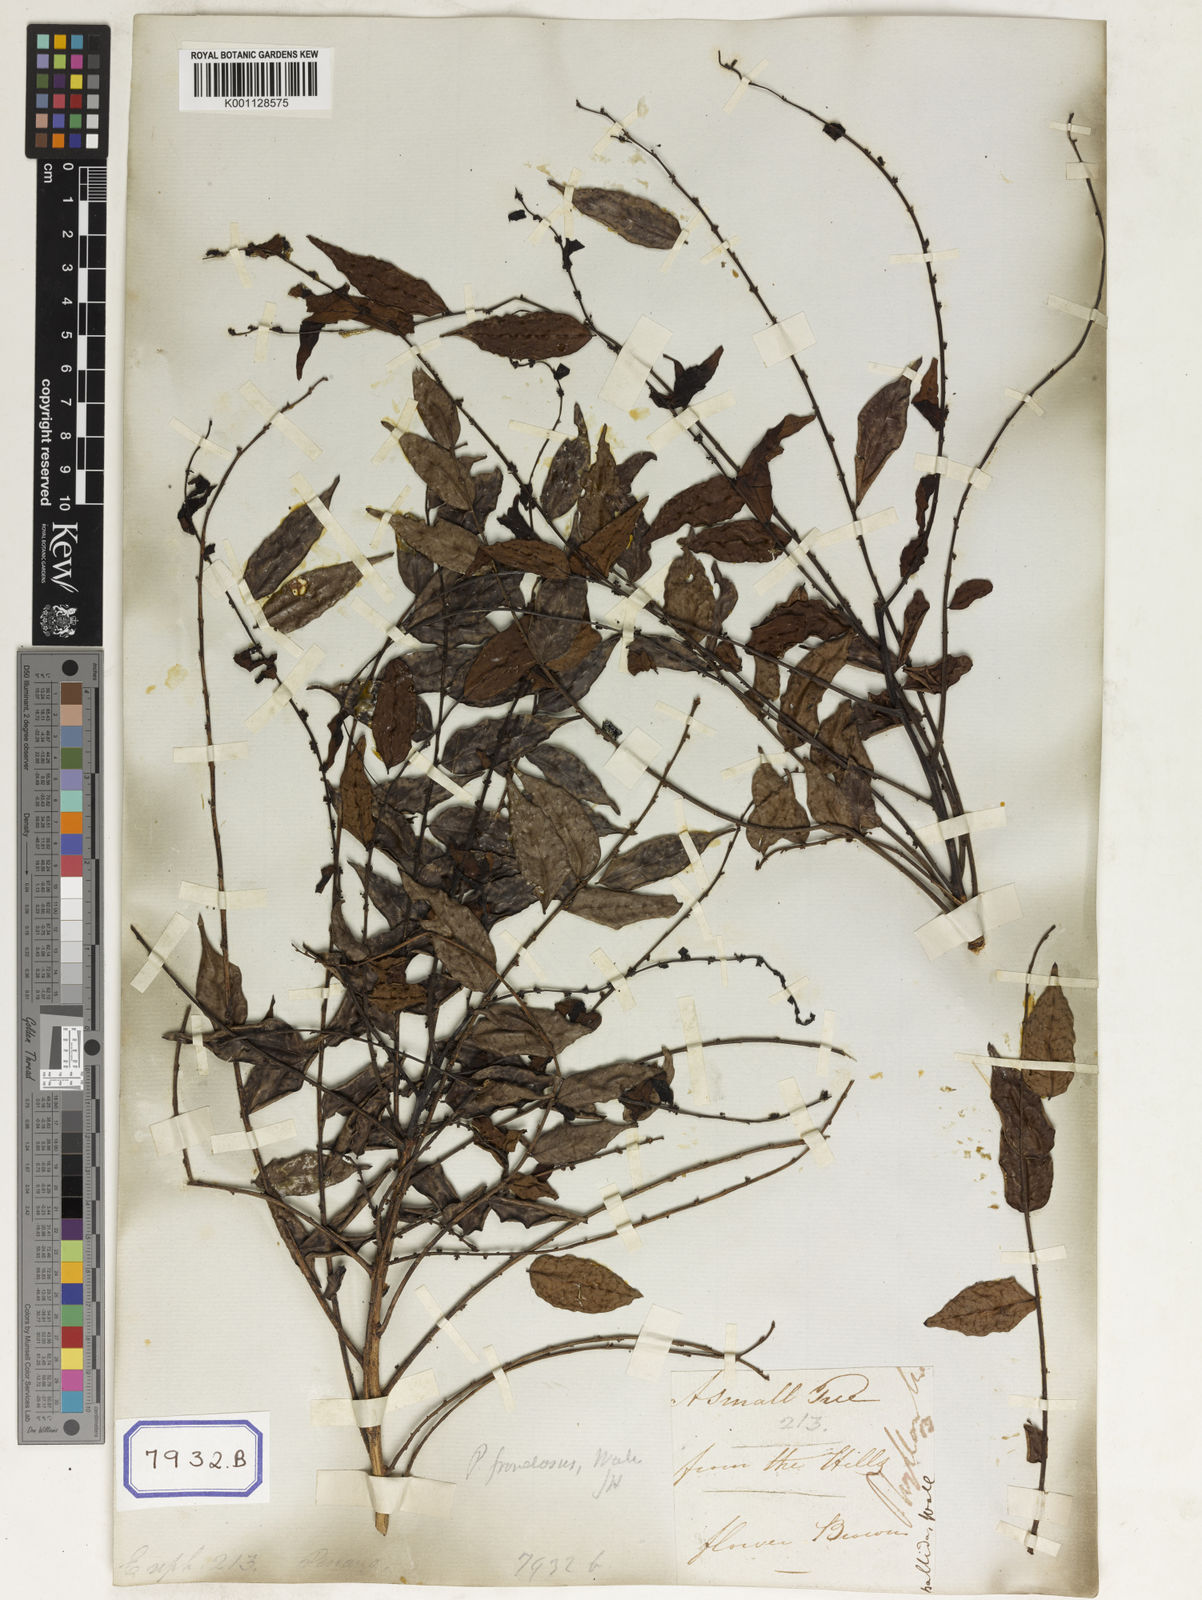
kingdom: Plantae
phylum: Tracheophyta
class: Magnoliopsida
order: Malpighiales
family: Euphorbiaceae
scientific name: Euphorbiaceae
